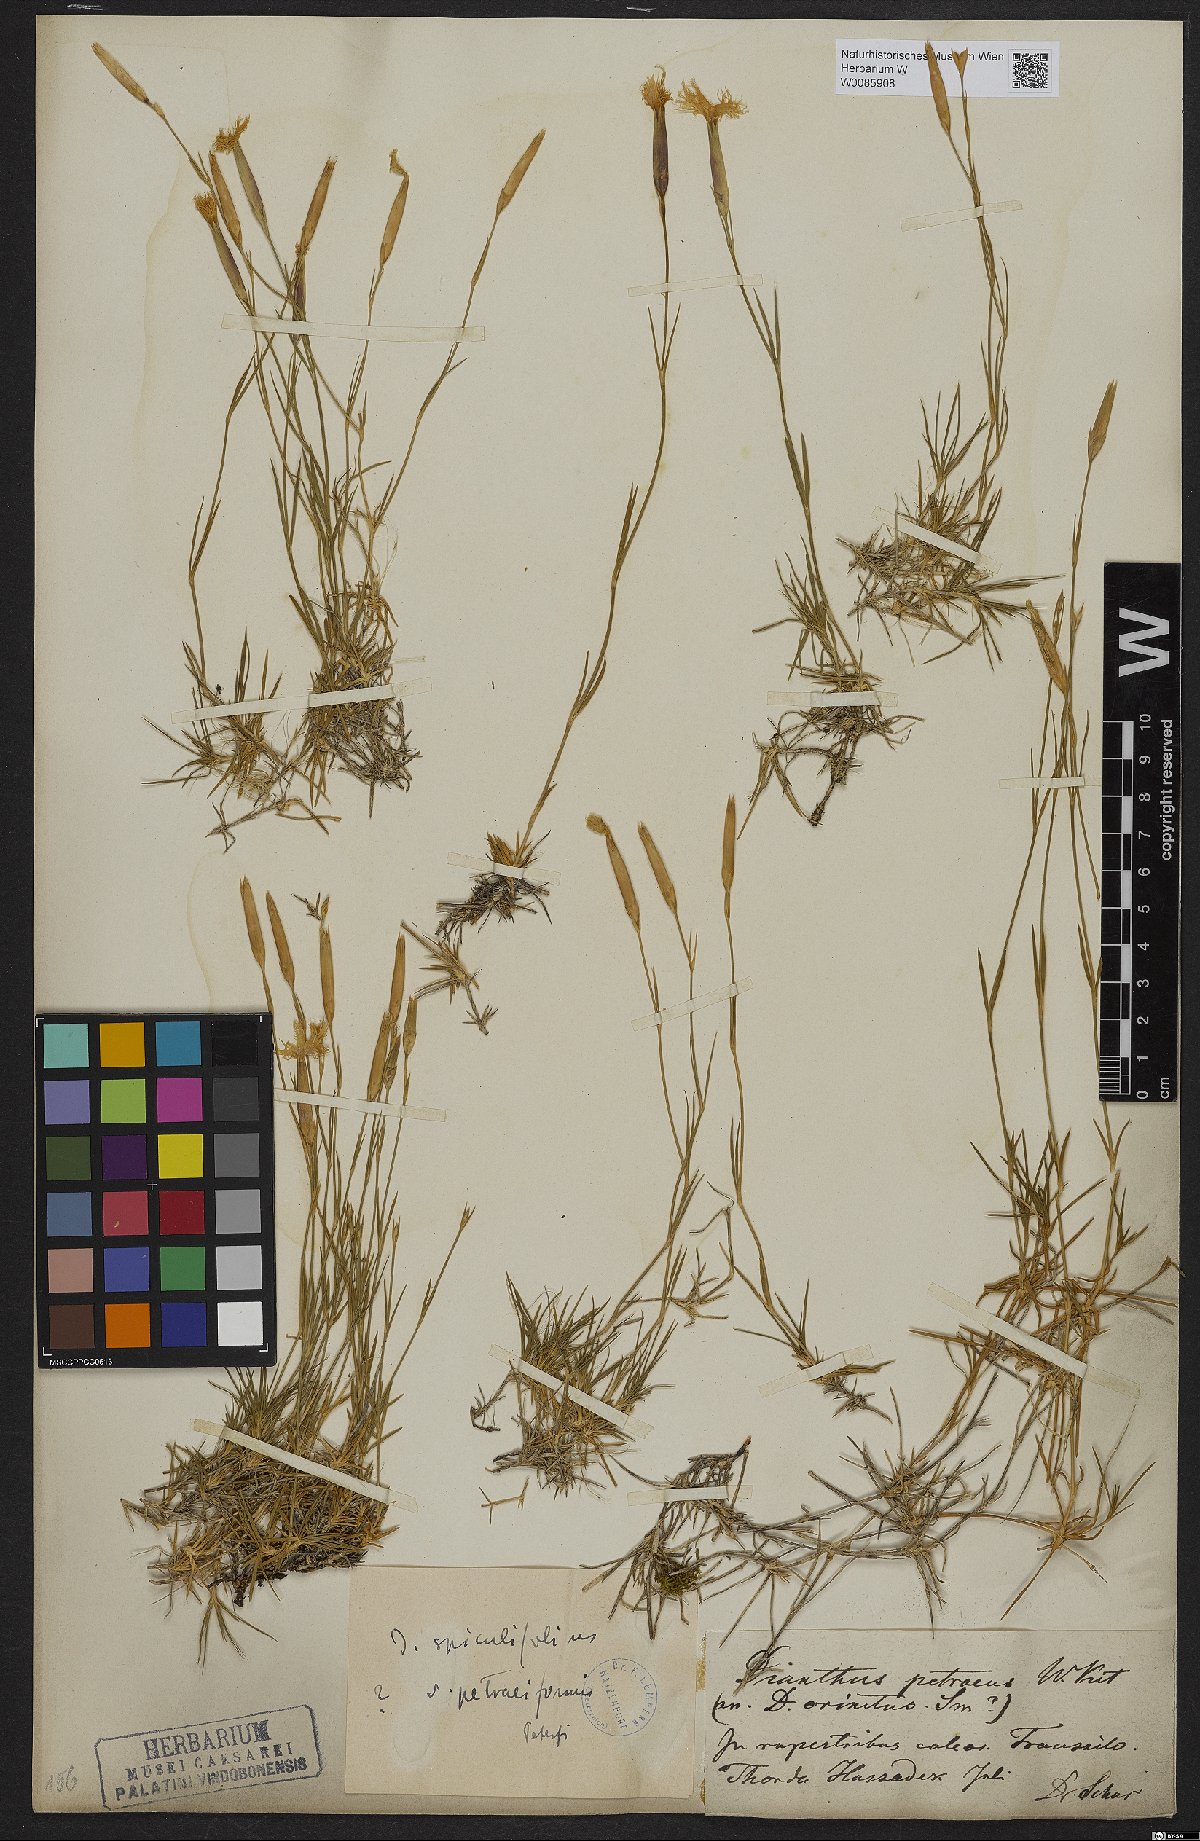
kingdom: Plantae
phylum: Tracheophyta
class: Magnoliopsida
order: Caryophyllales
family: Caryophyllaceae
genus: Dianthus
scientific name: Dianthus spiculifolius
